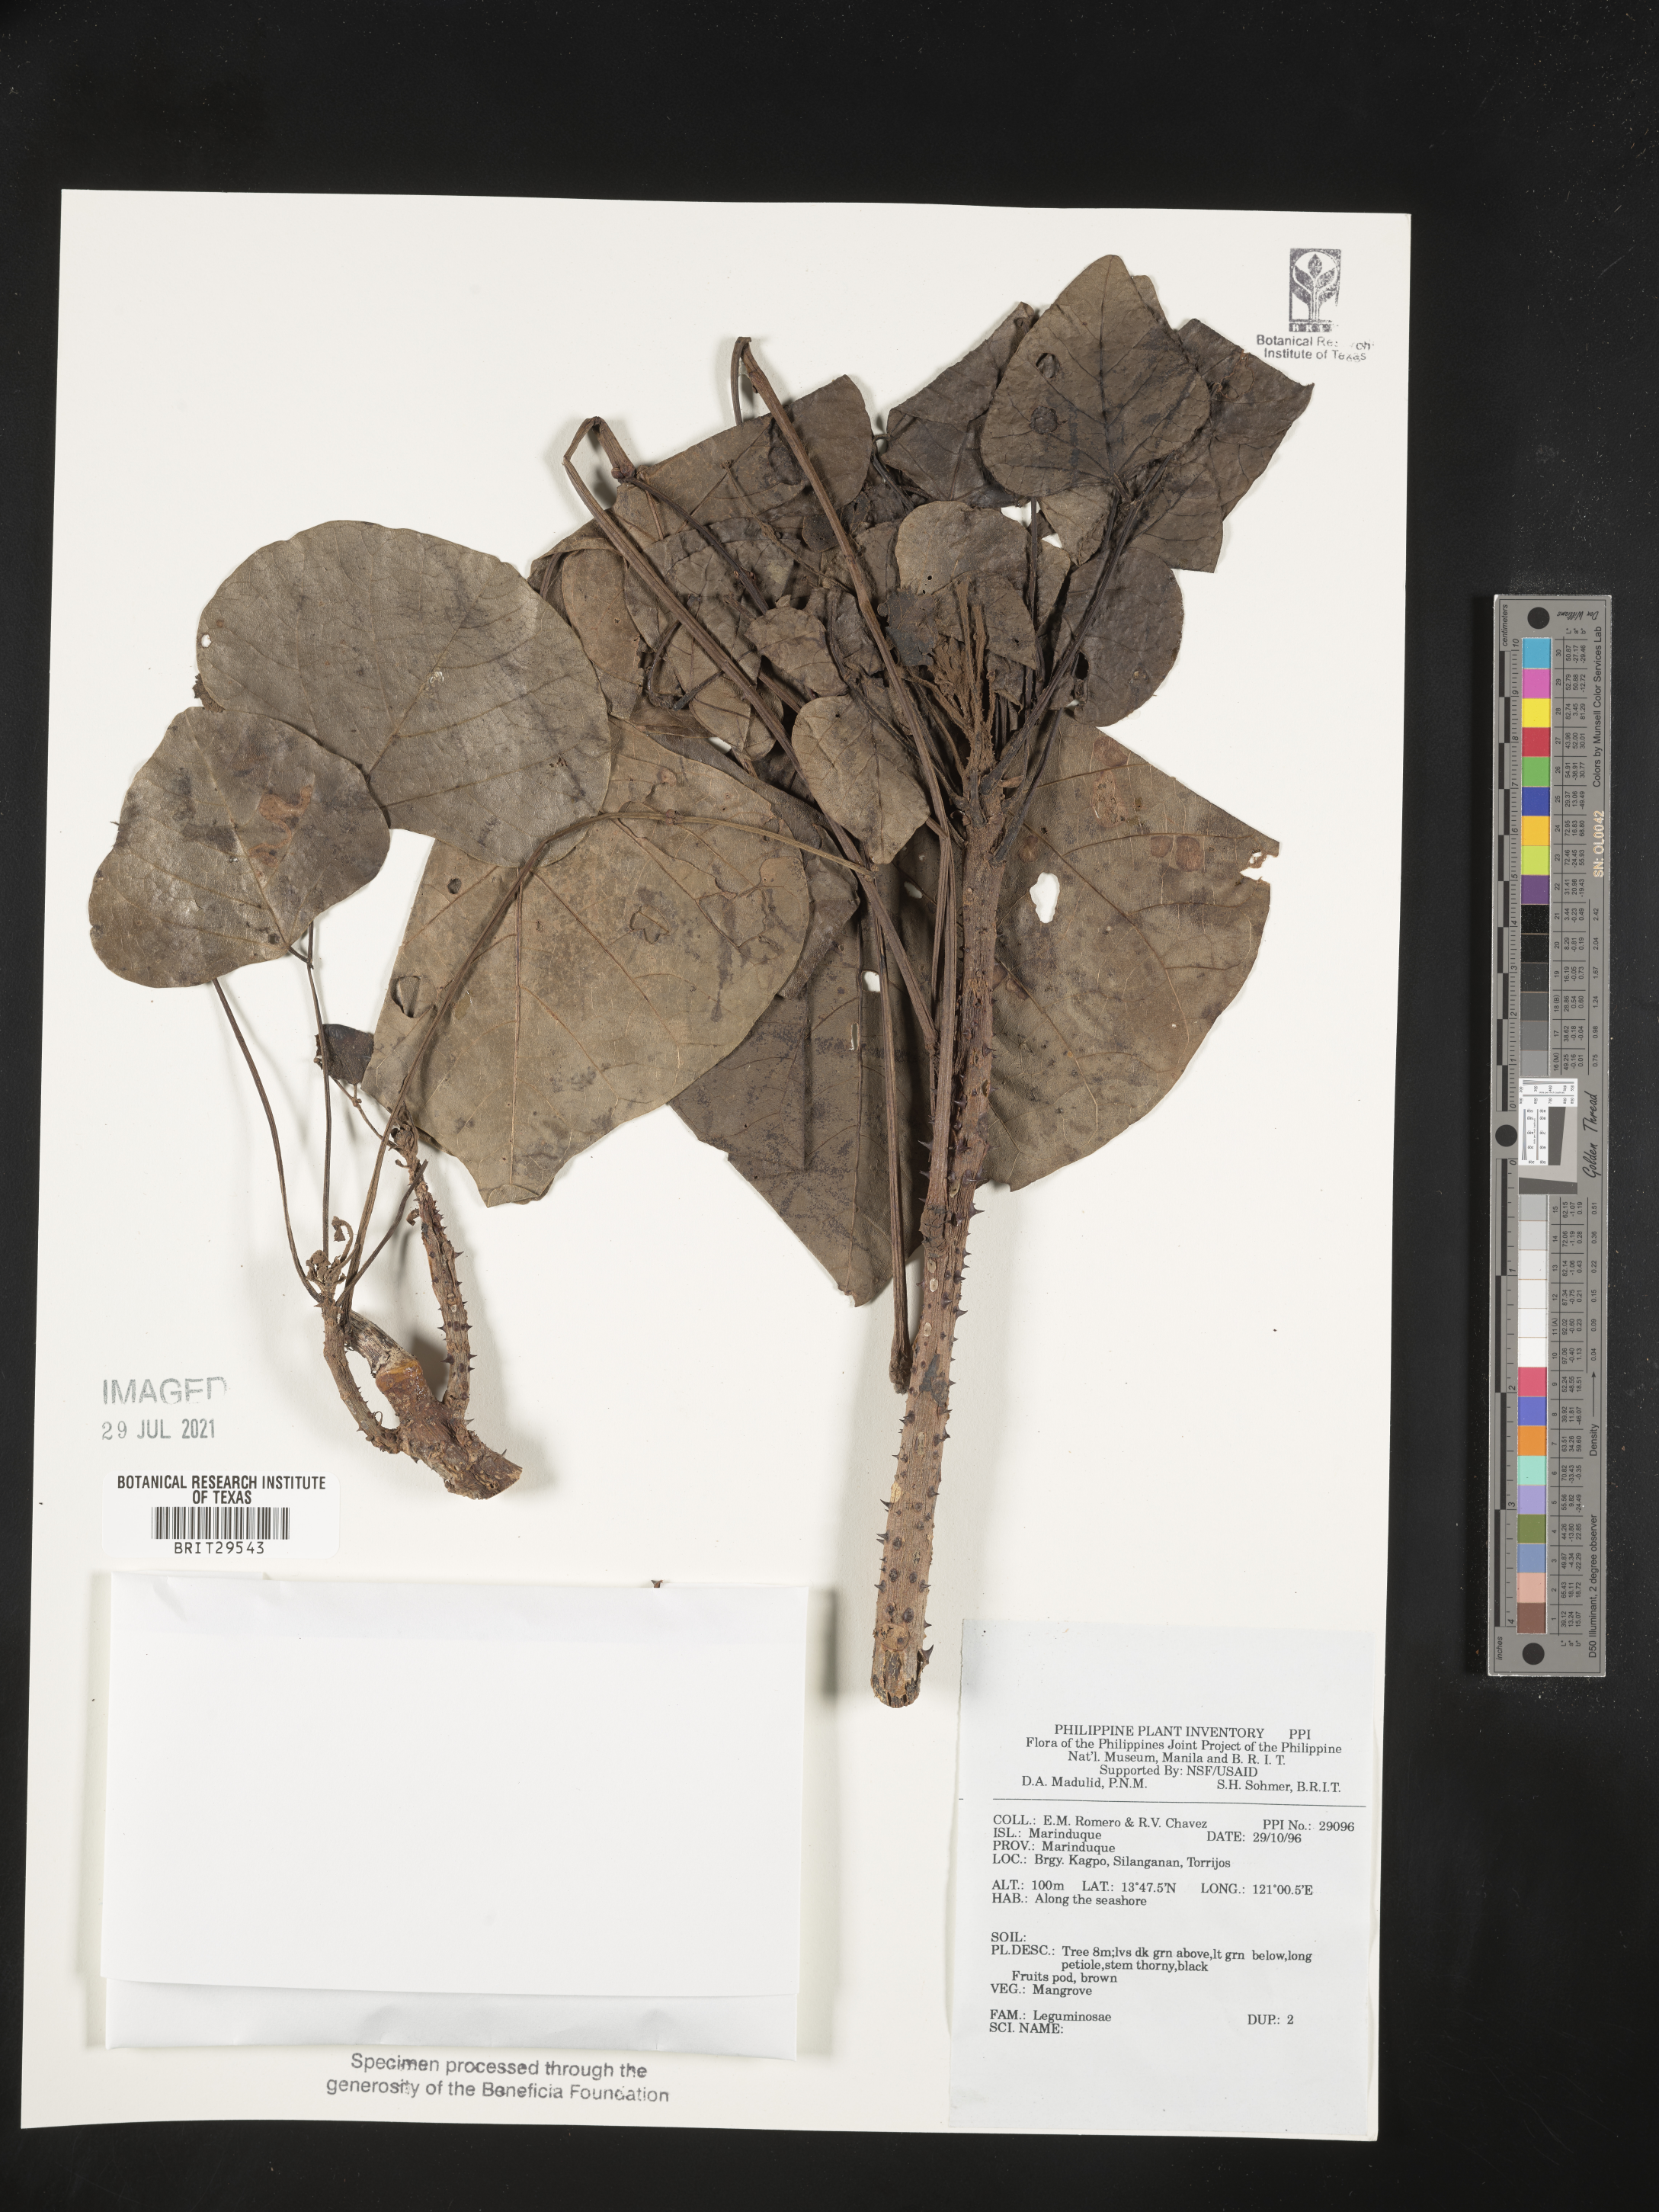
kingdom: Plantae
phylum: Tracheophyta
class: Magnoliopsida
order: Fabales
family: Fabaceae
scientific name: Fabaceae
